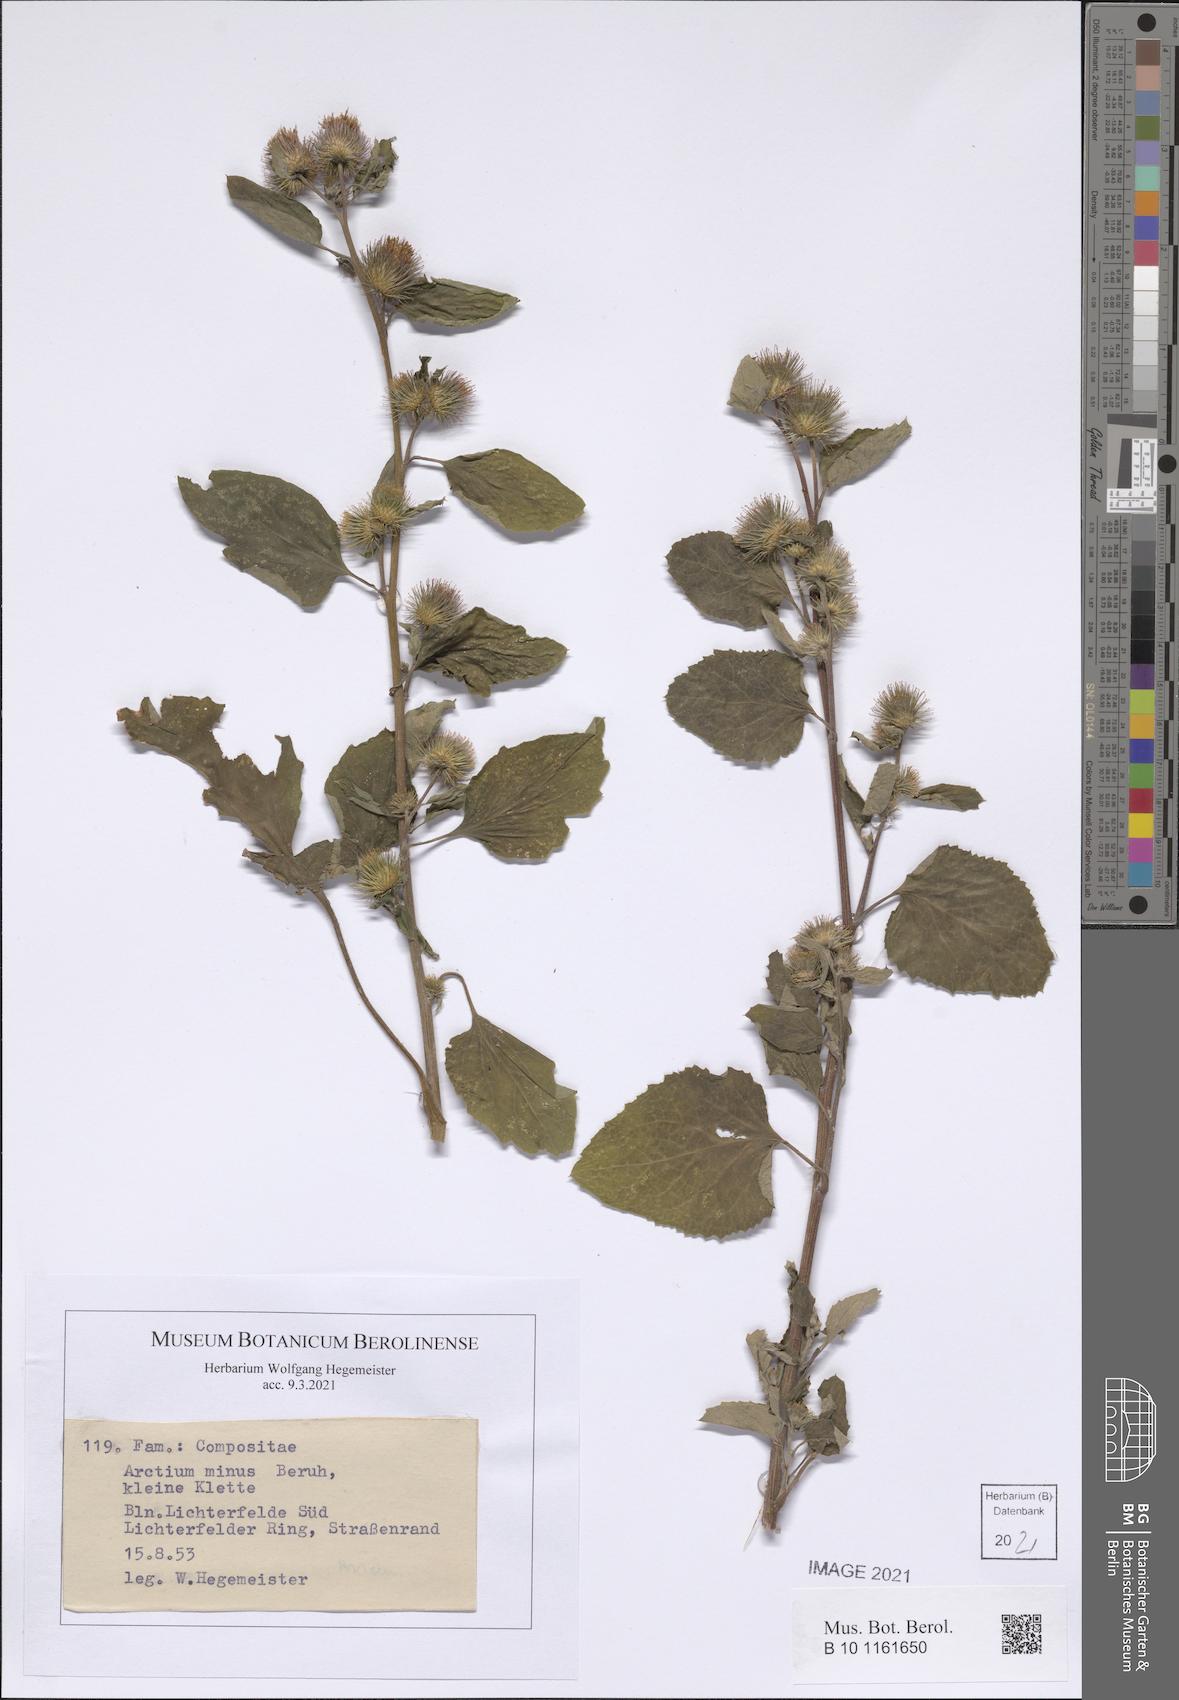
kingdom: Plantae
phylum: Tracheophyta
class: Magnoliopsida
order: Asterales
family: Asteraceae
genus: Arctium
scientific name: Arctium minus
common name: Lesser burdock
